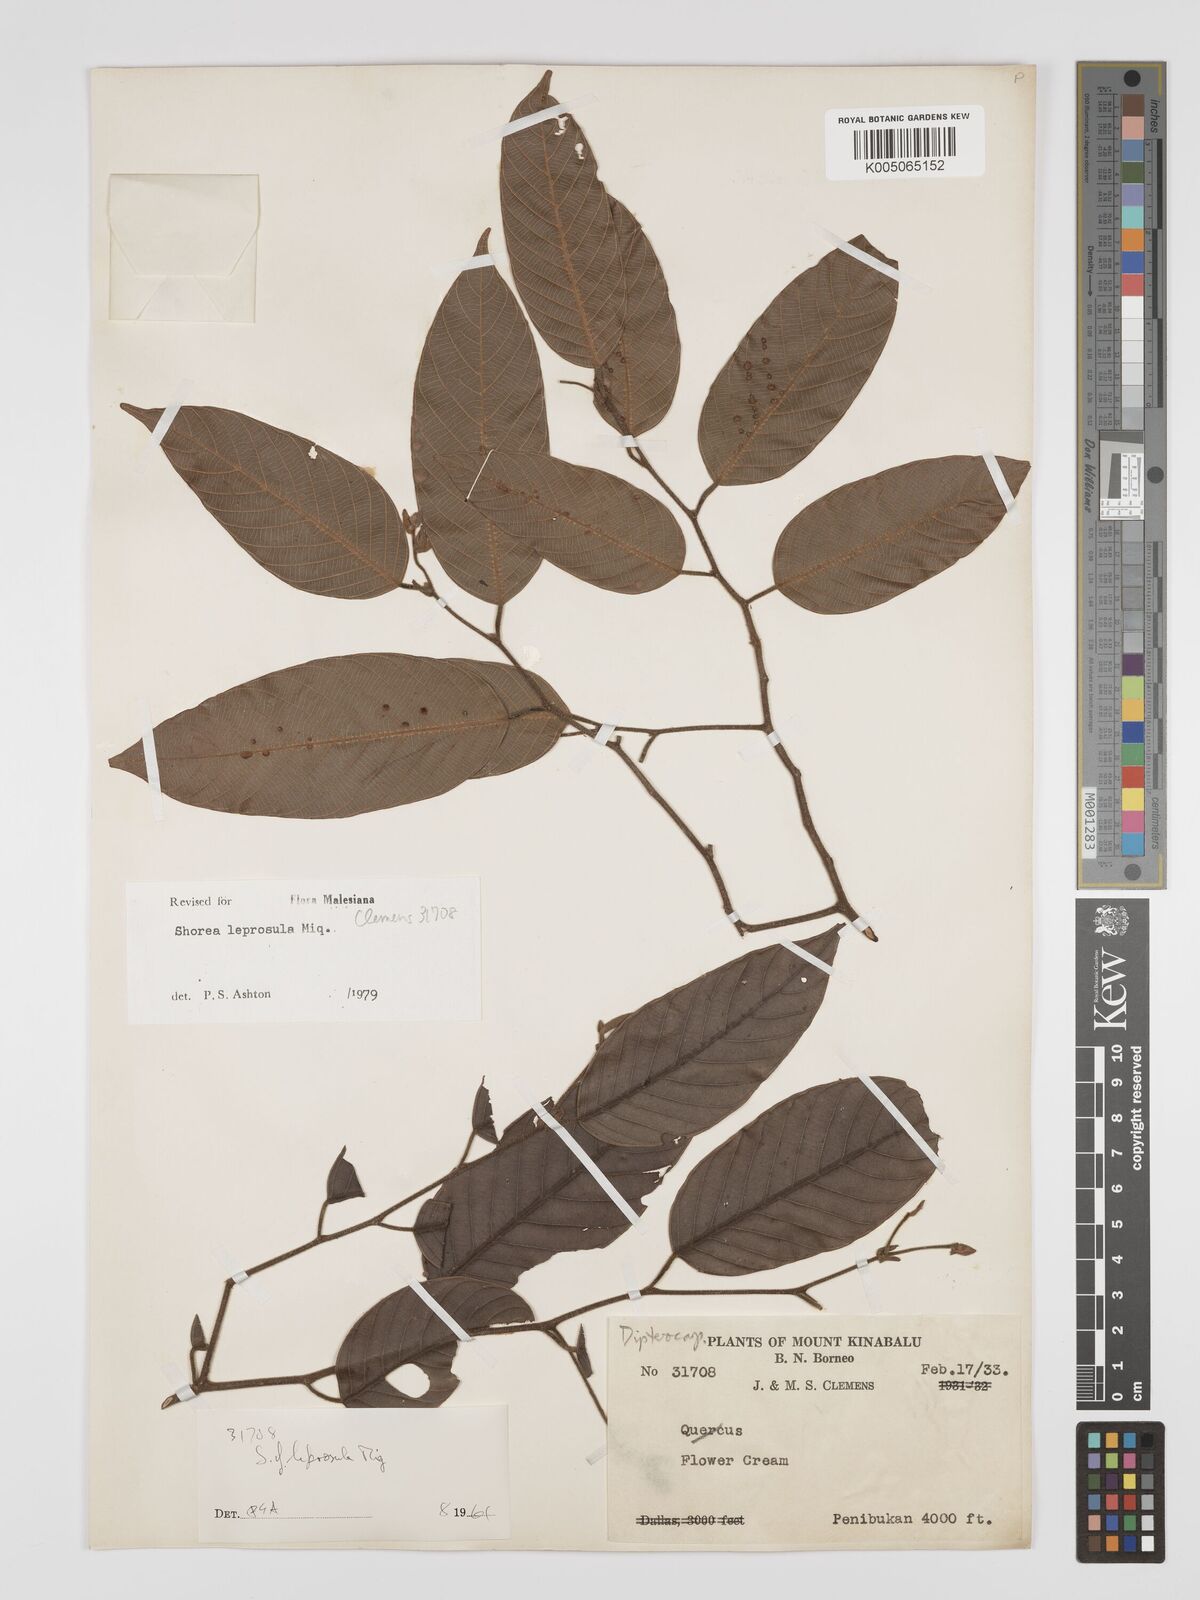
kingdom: Plantae
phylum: Tracheophyta
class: Magnoliopsida
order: Malvales
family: Dipterocarpaceae
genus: Shorea
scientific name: Shorea leprosula
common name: Light red meranti
